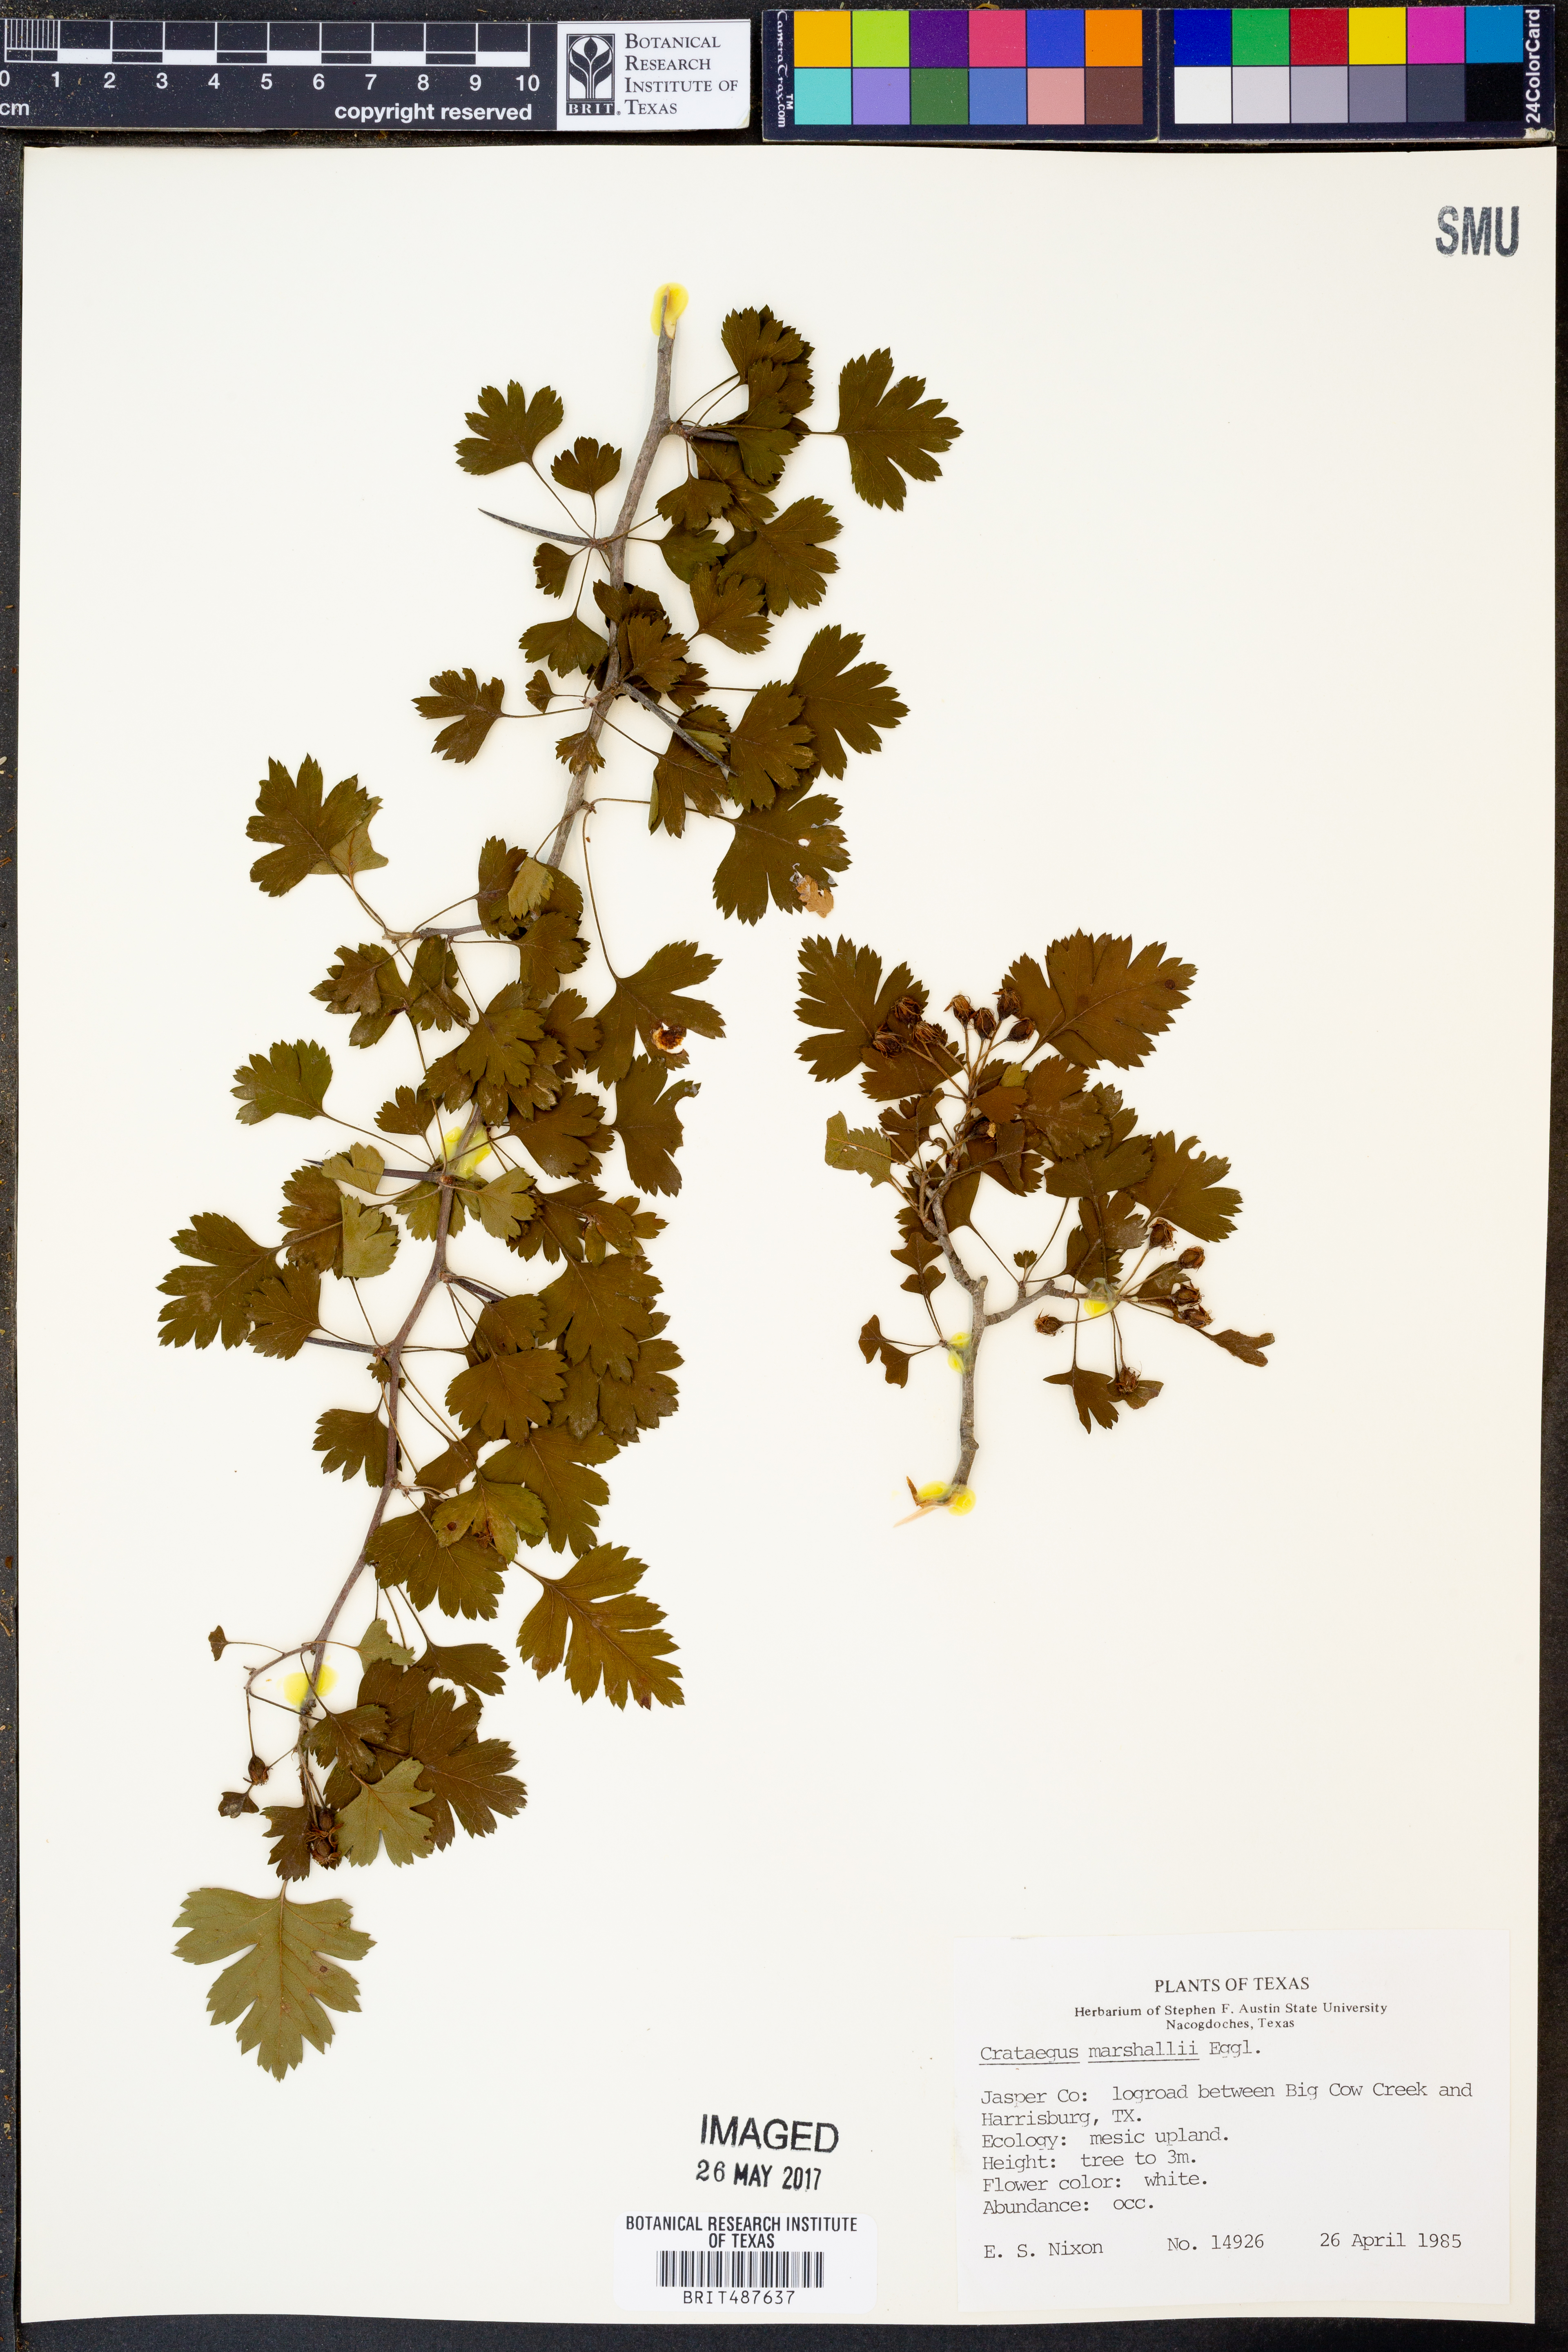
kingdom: Plantae
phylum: Tracheophyta
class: Magnoliopsida
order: Rosales
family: Rosaceae
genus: Crataegus
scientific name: Crataegus marshallii
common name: Parsley-hawthorn
